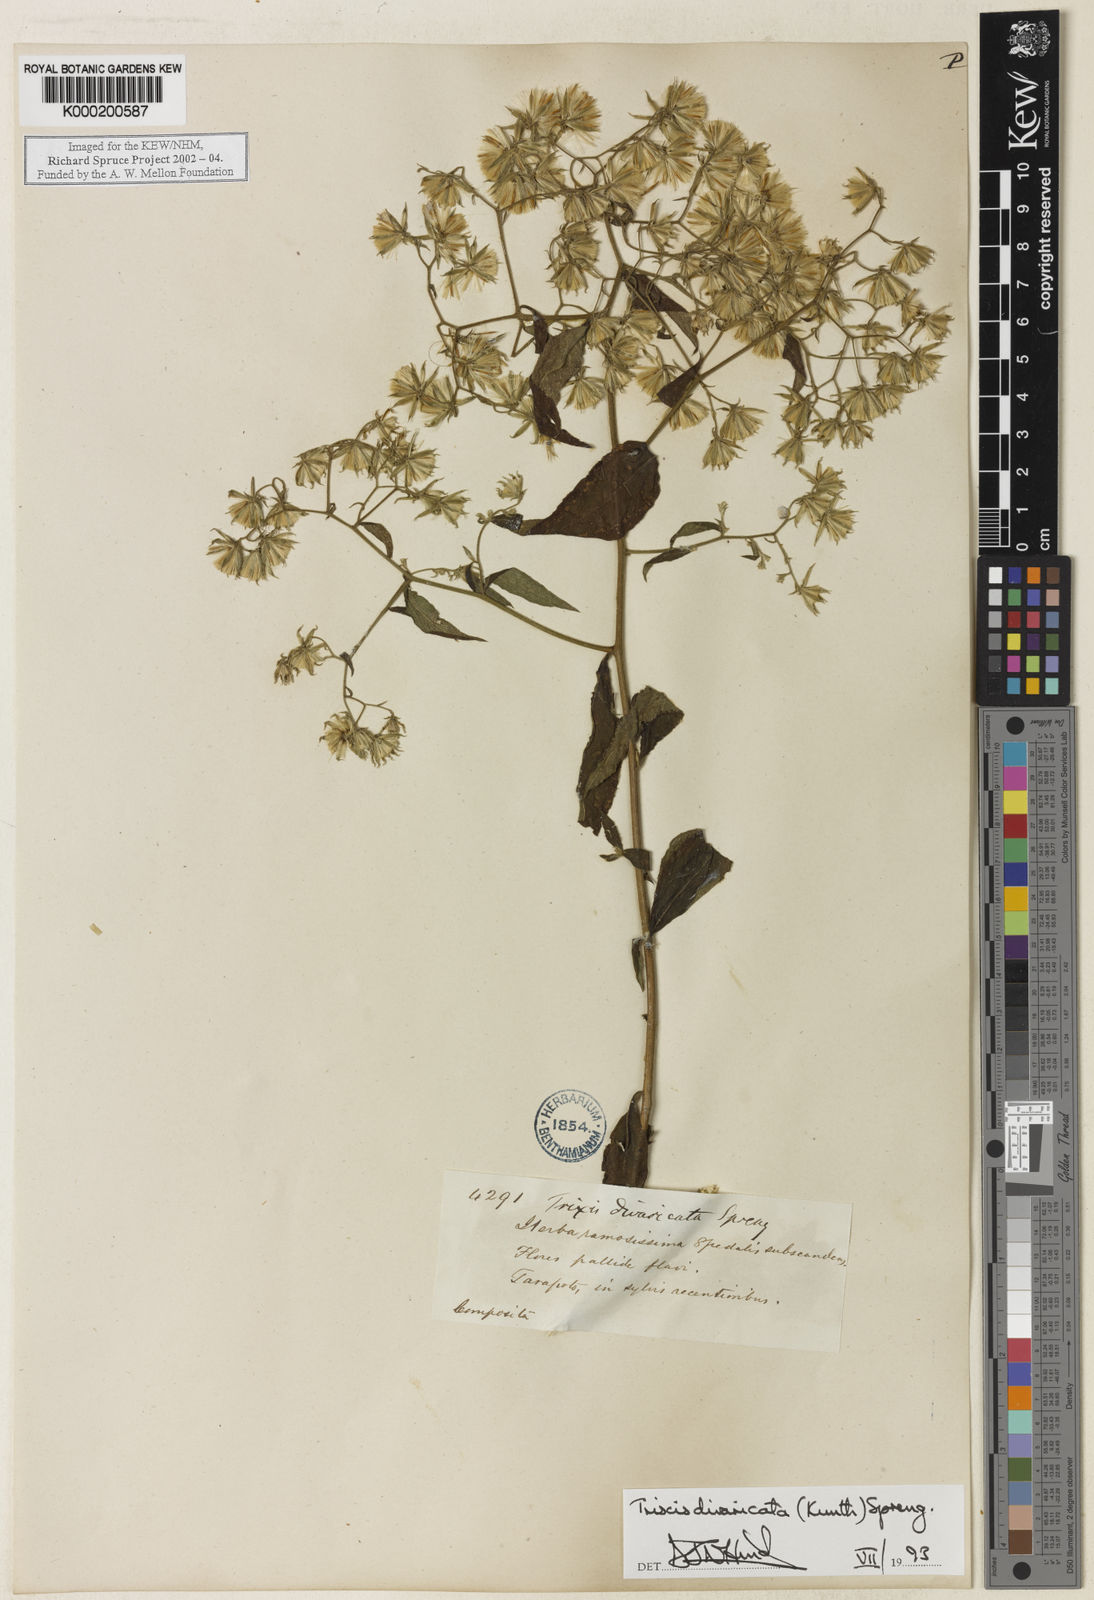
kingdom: Plantae
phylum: Tracheophyta
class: Magnoliopsida
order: Asterales
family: Asteraceae
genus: Trixis
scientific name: Trixis divaricata
